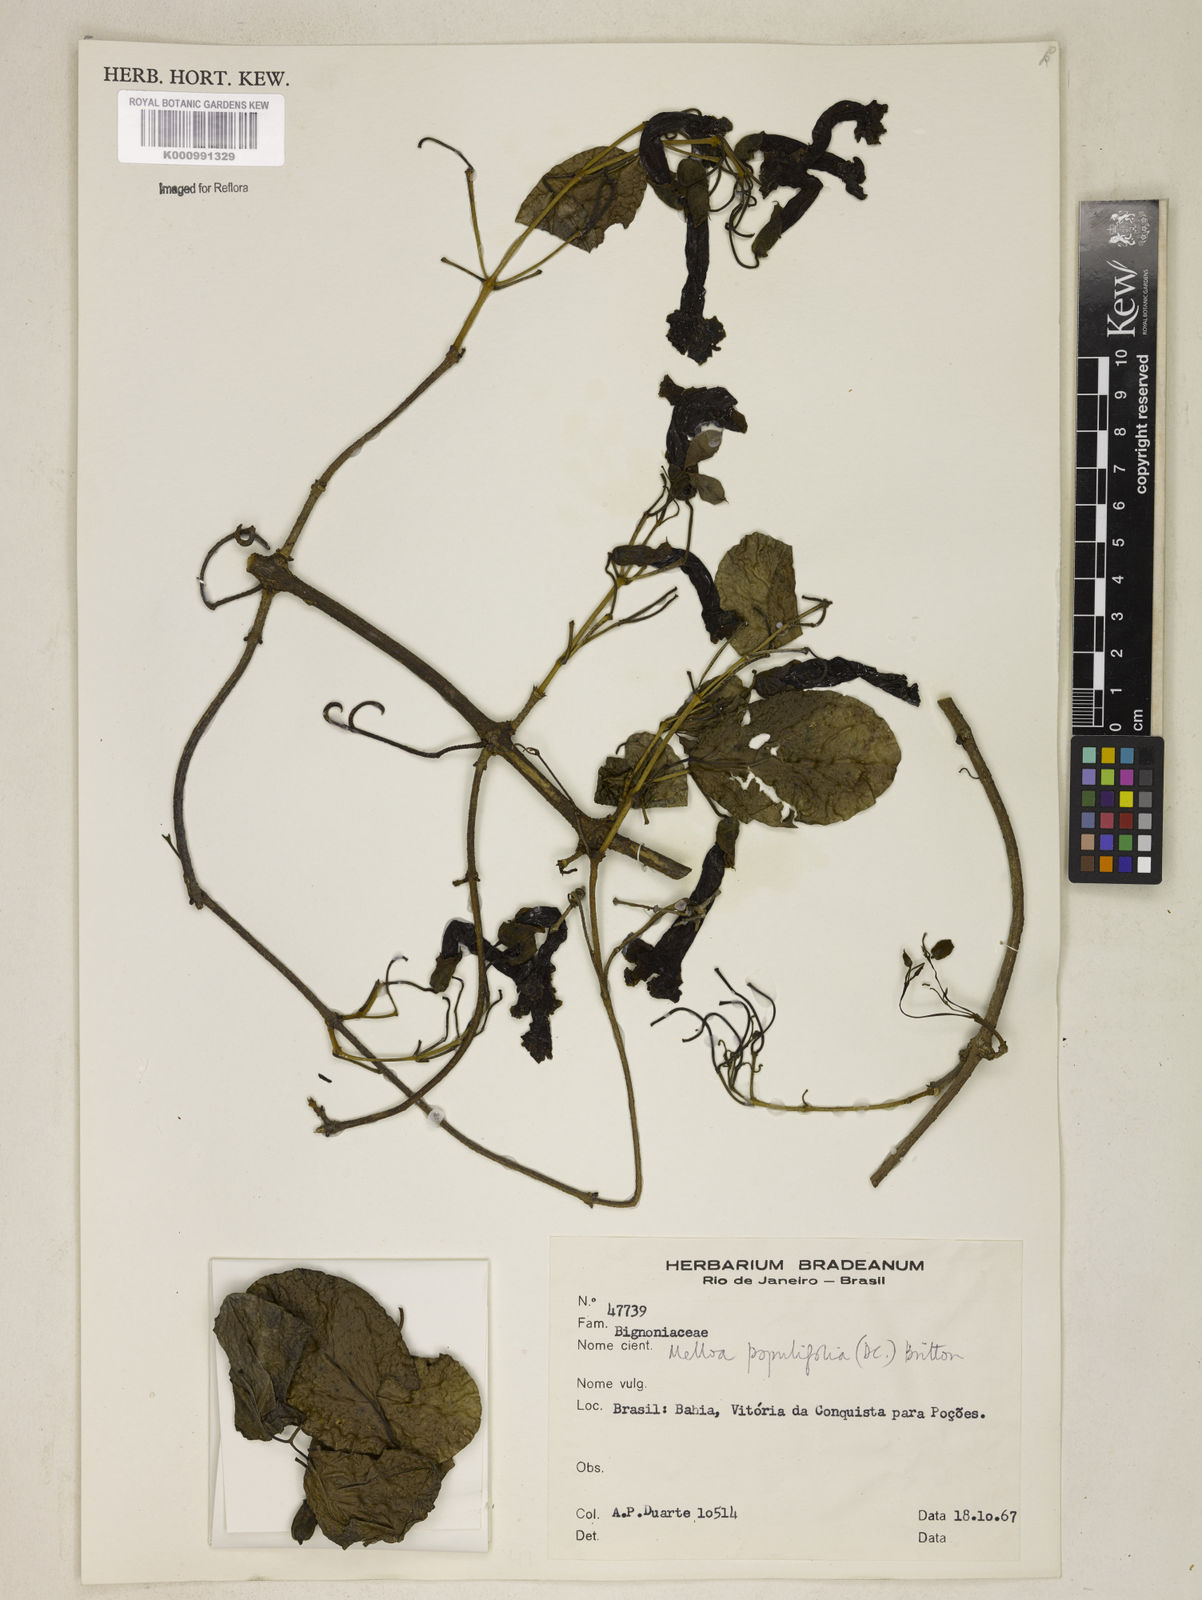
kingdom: Plantae
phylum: Tracheophyta
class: Magnoliopsida
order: Lamiales
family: Bignoniaceae
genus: Dolichandra
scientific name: Dolichandra quadrivalvis
